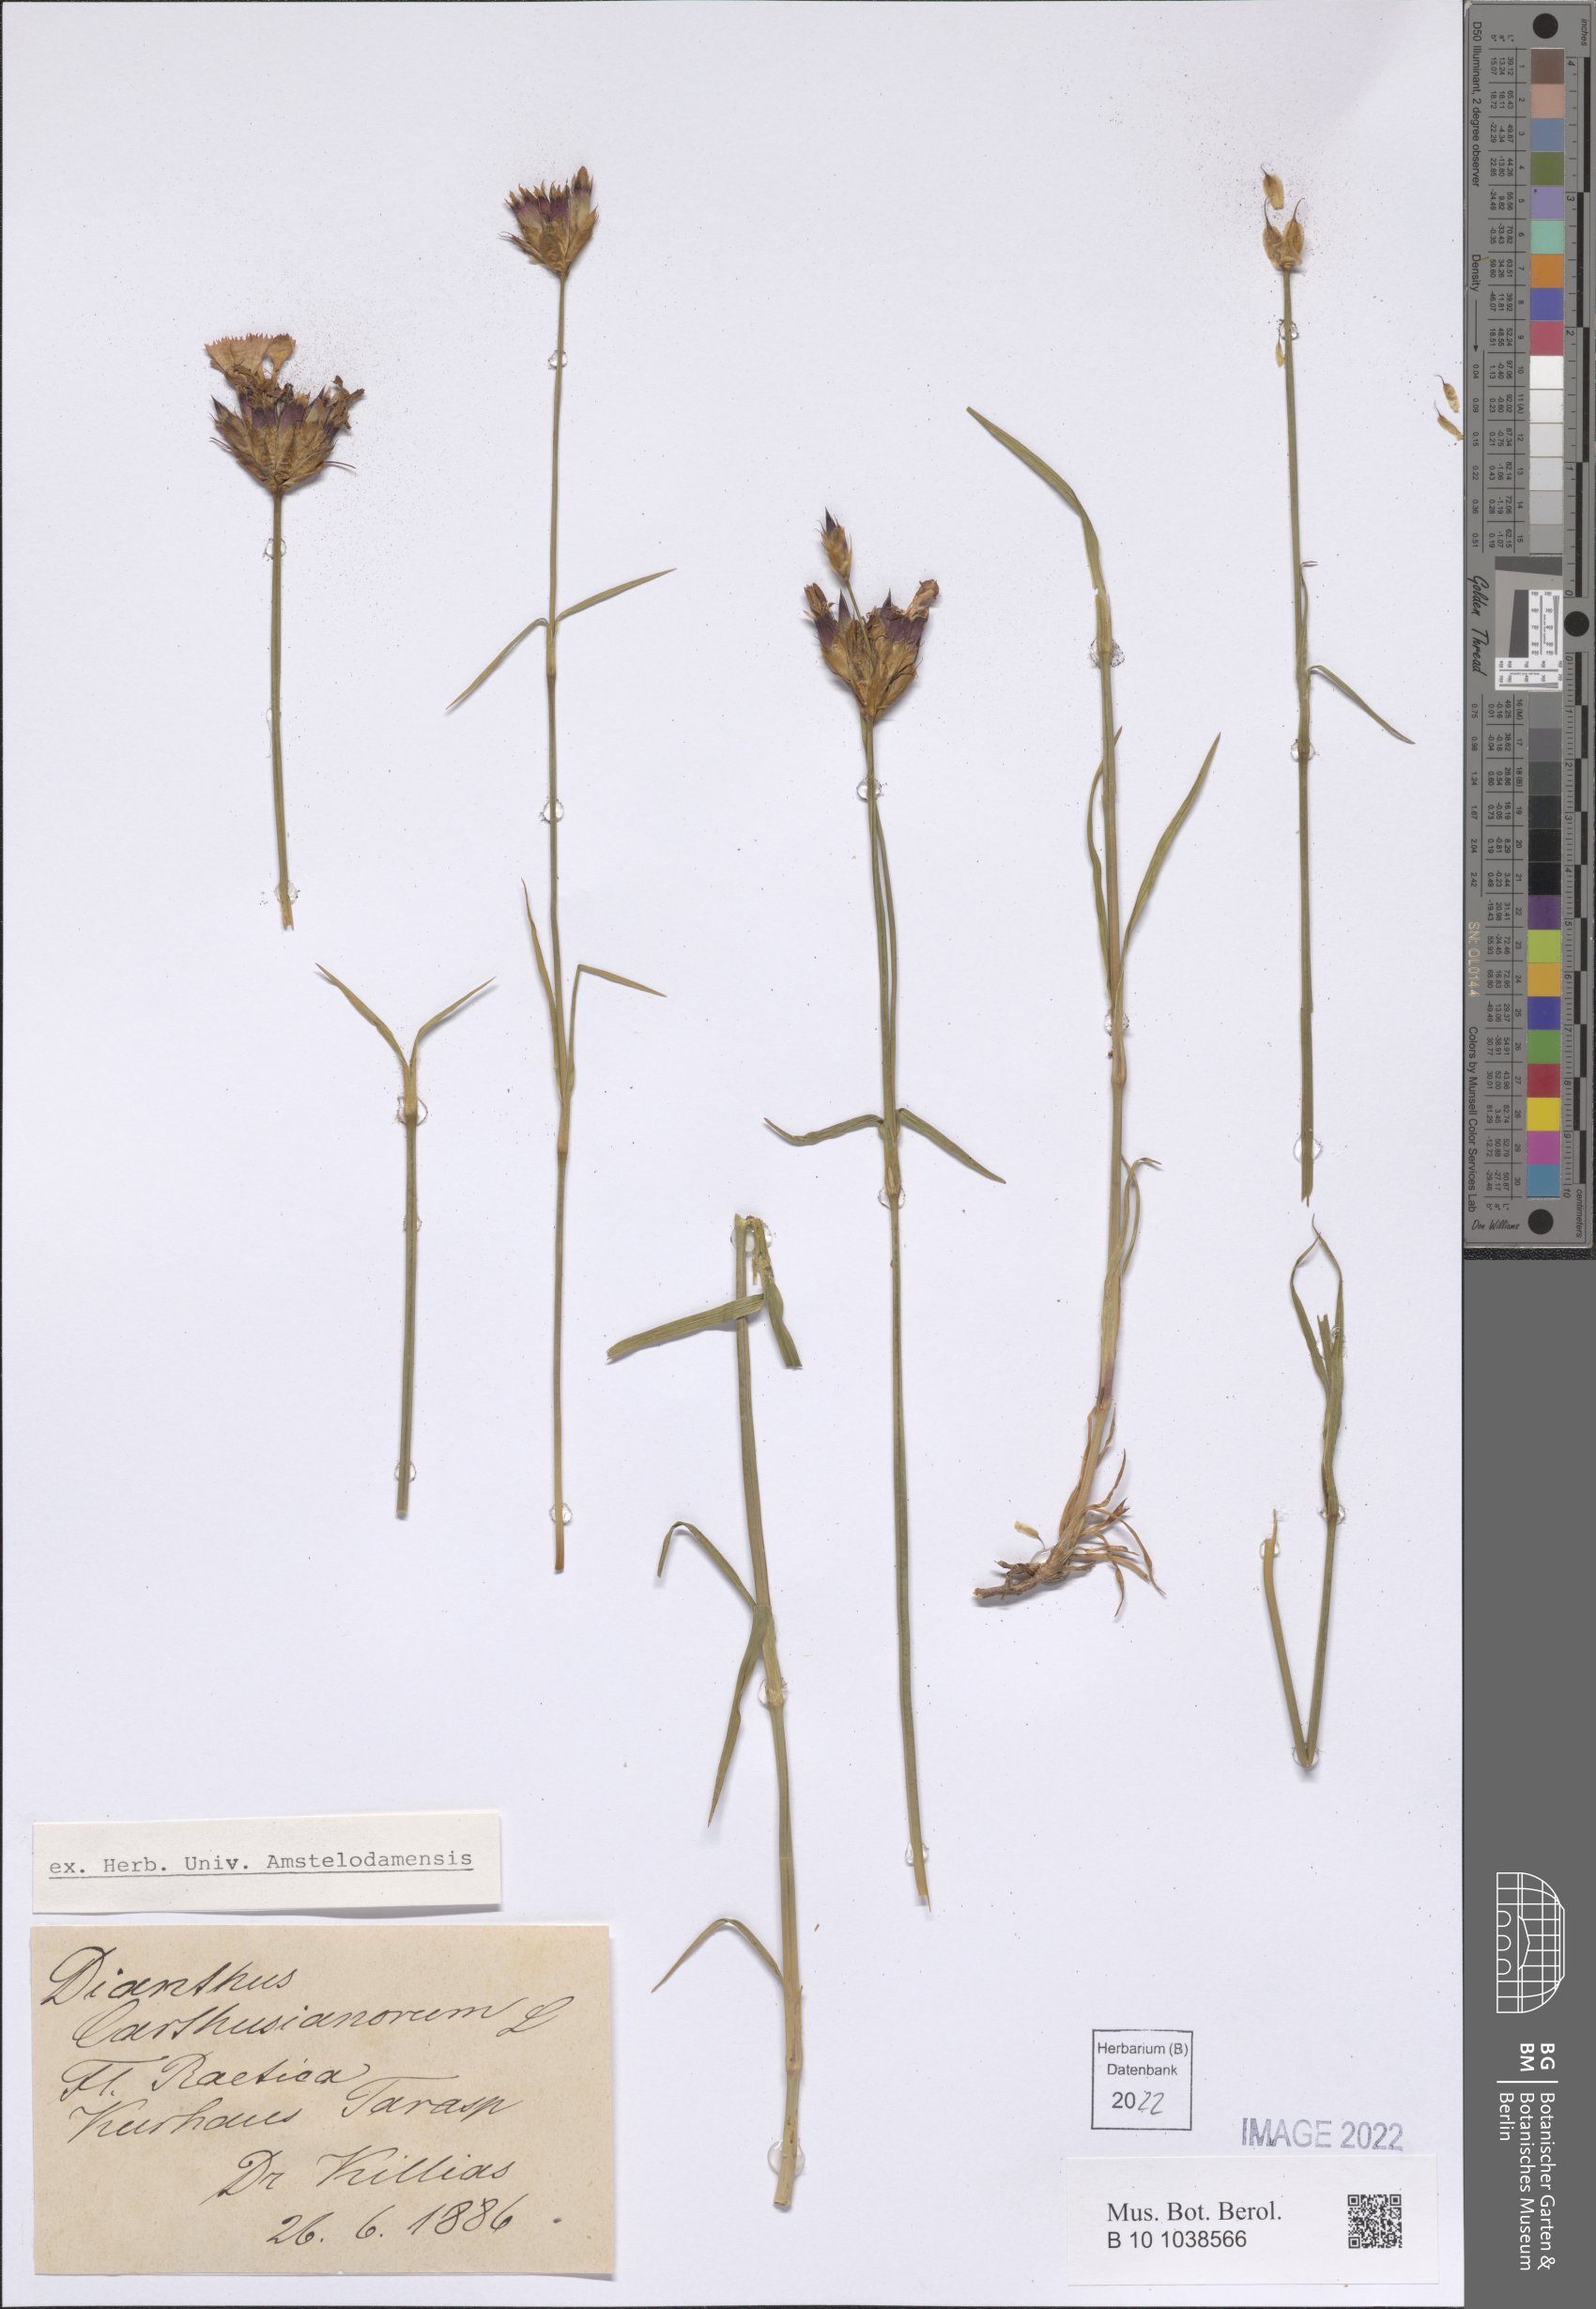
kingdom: Plantae
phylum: Tracheophyta
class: Magnoliopsida
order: Caryophyllales
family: Caryophyllaceae
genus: Dianthus
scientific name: Dianthus carthusianorum
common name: Carthusian pink
